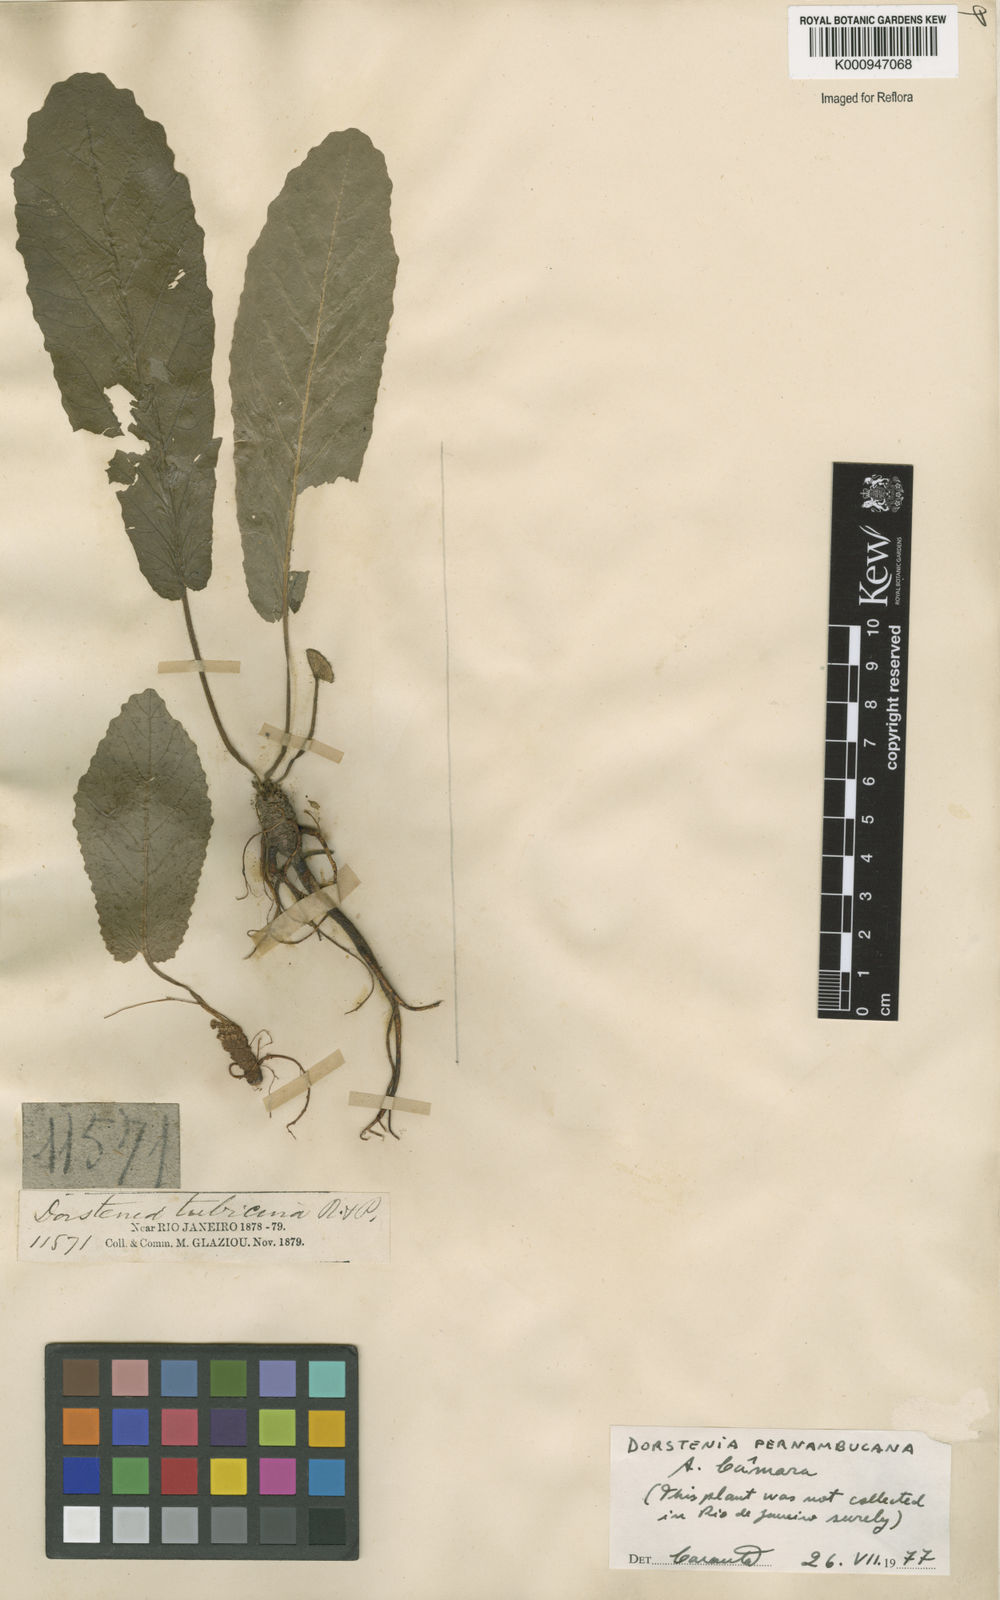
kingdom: Plantae
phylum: Tracheophyta
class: Magnoliopsida
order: Rosales
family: Moraceae
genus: Dorstenia
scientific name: Dorstenia brasiliensis
